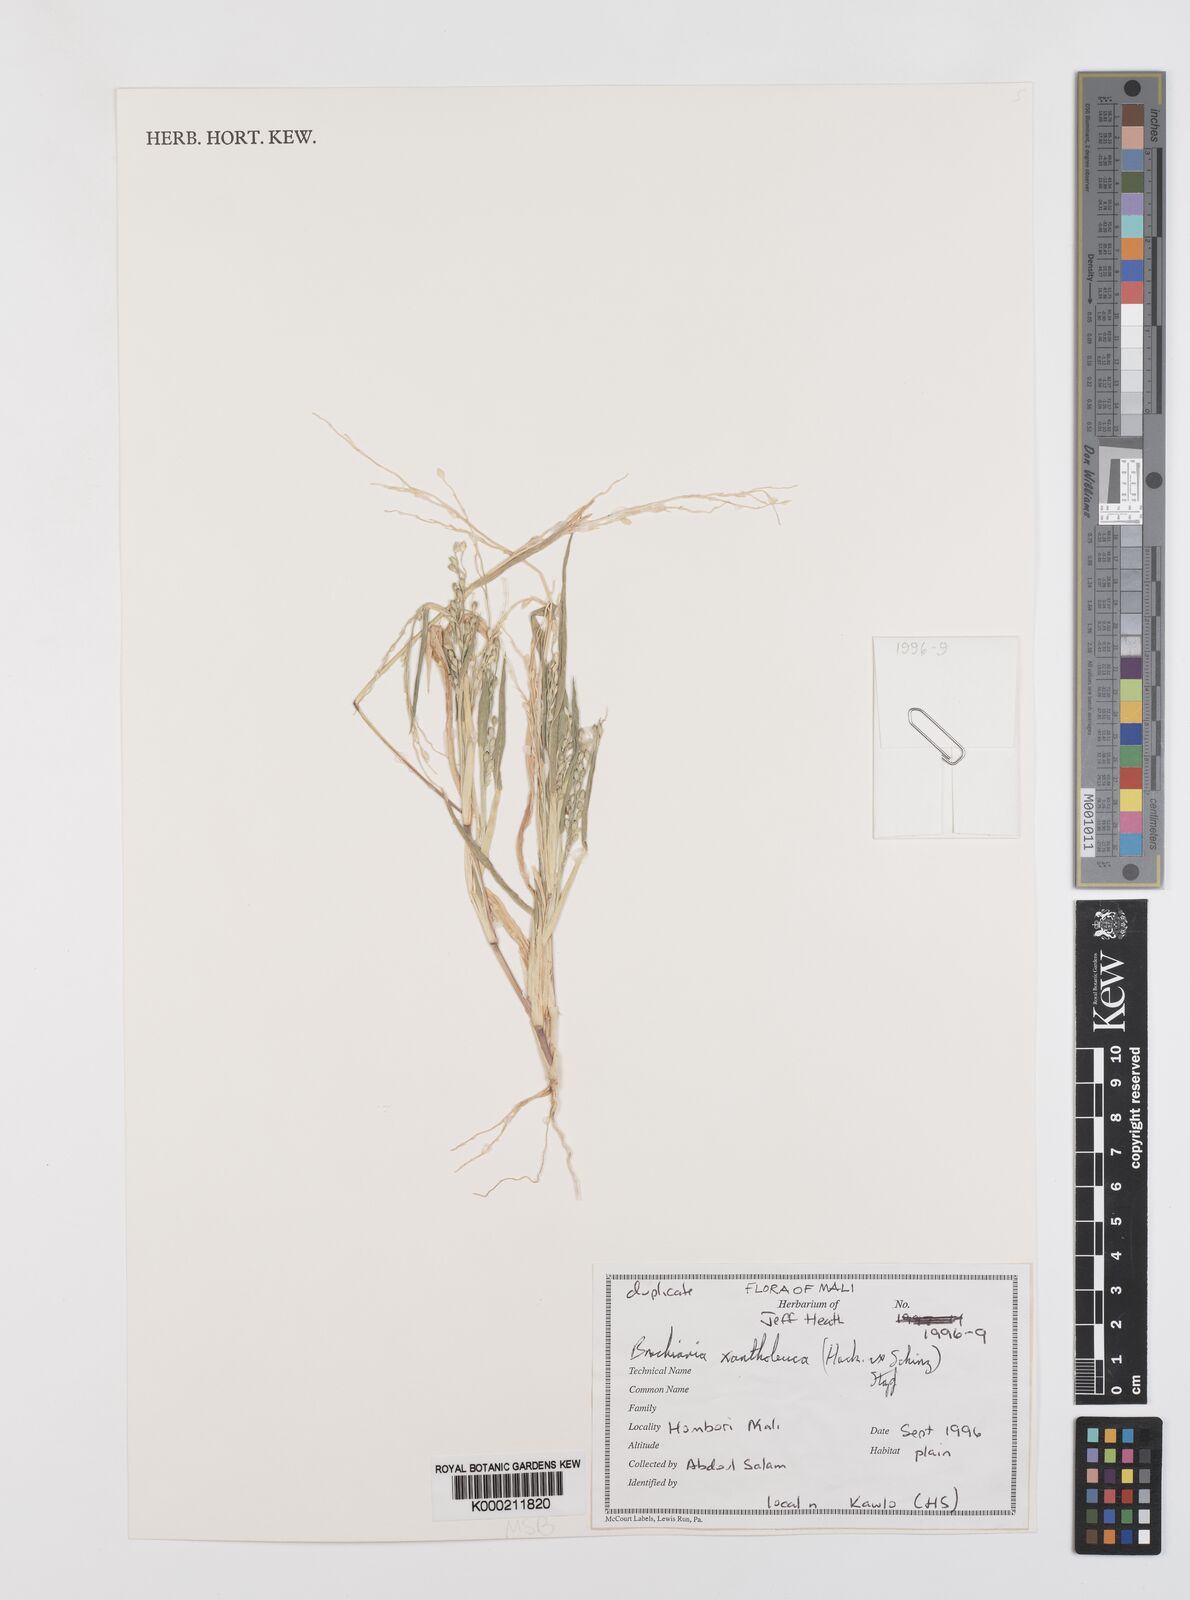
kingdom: Plantae
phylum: Tracheophyta
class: Liliopsida
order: Poales
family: Poaceae
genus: Urochloa
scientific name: Urochloa xantholeuca
